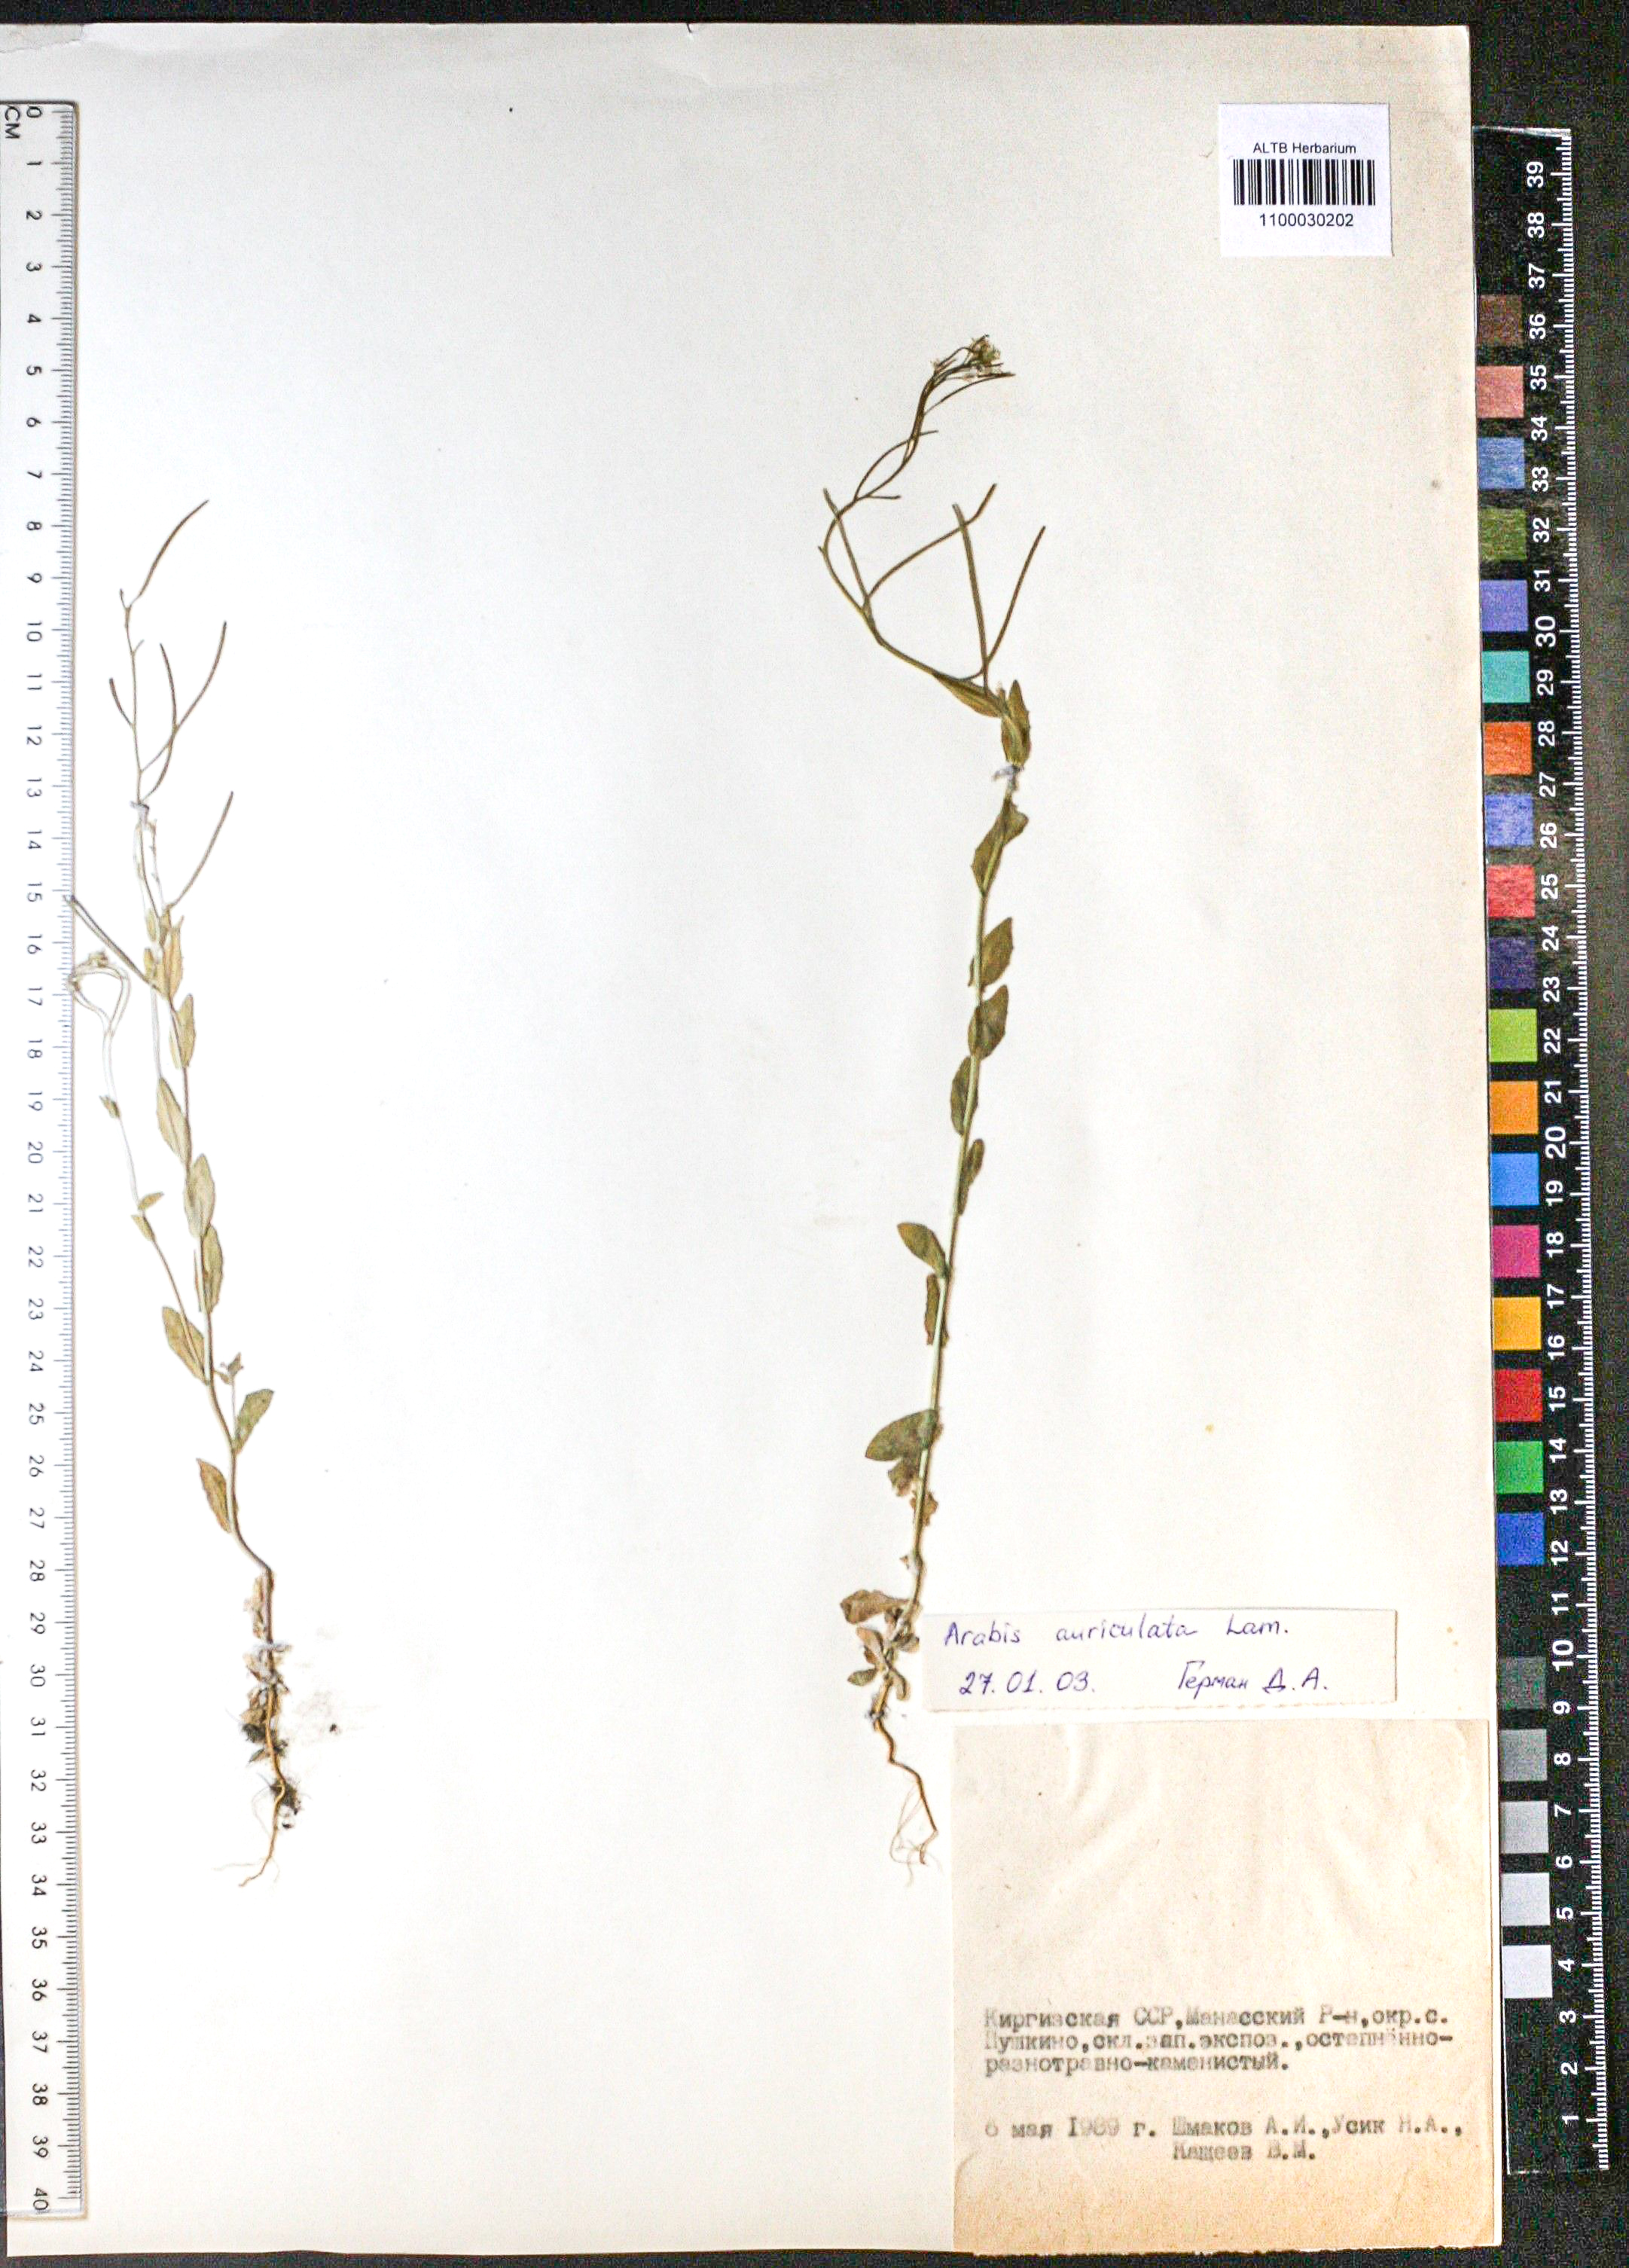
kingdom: Plantae
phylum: Tracheophyta
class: Magnoliopsida
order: Brassicales
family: Brassicaceae
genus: Arabis
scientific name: Arabis auriculata
